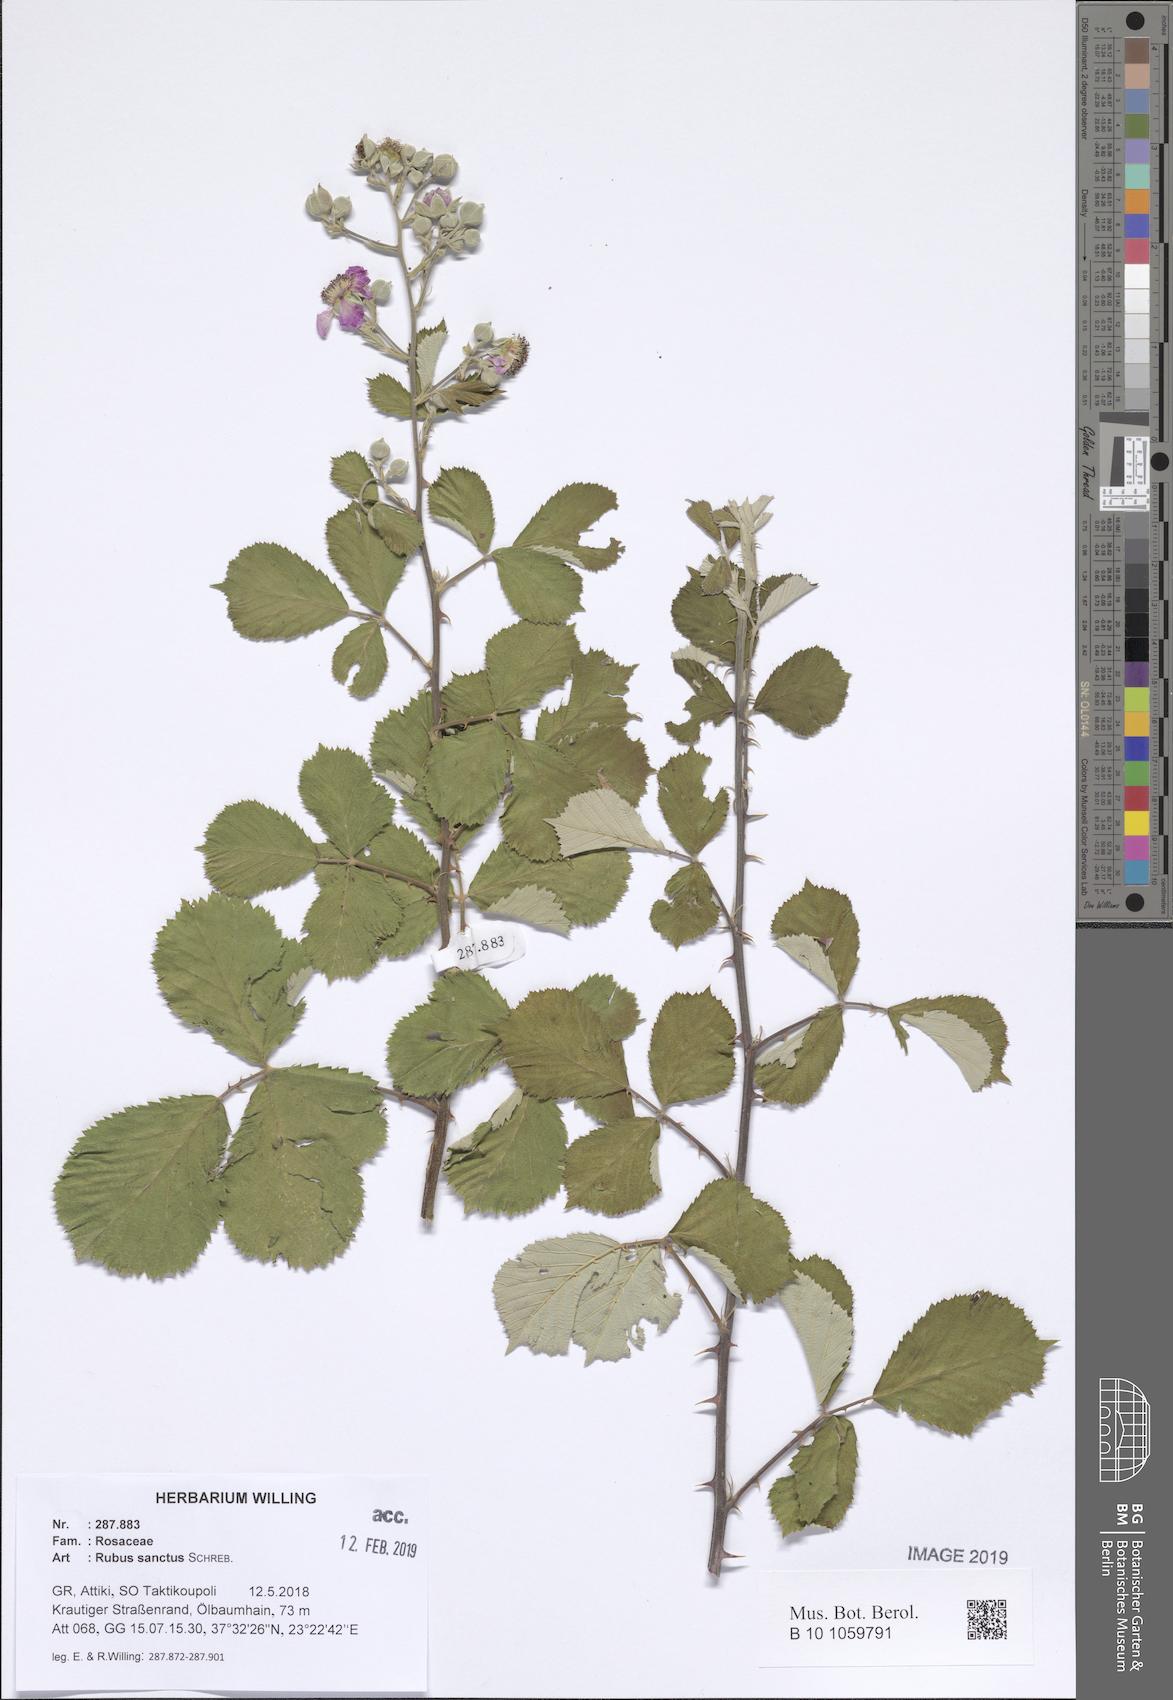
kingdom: Plantae
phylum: Tracheophyta
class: Magnoliopsida
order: Rosales
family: Rosaceae
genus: Rubus
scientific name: Rubus sanctus
